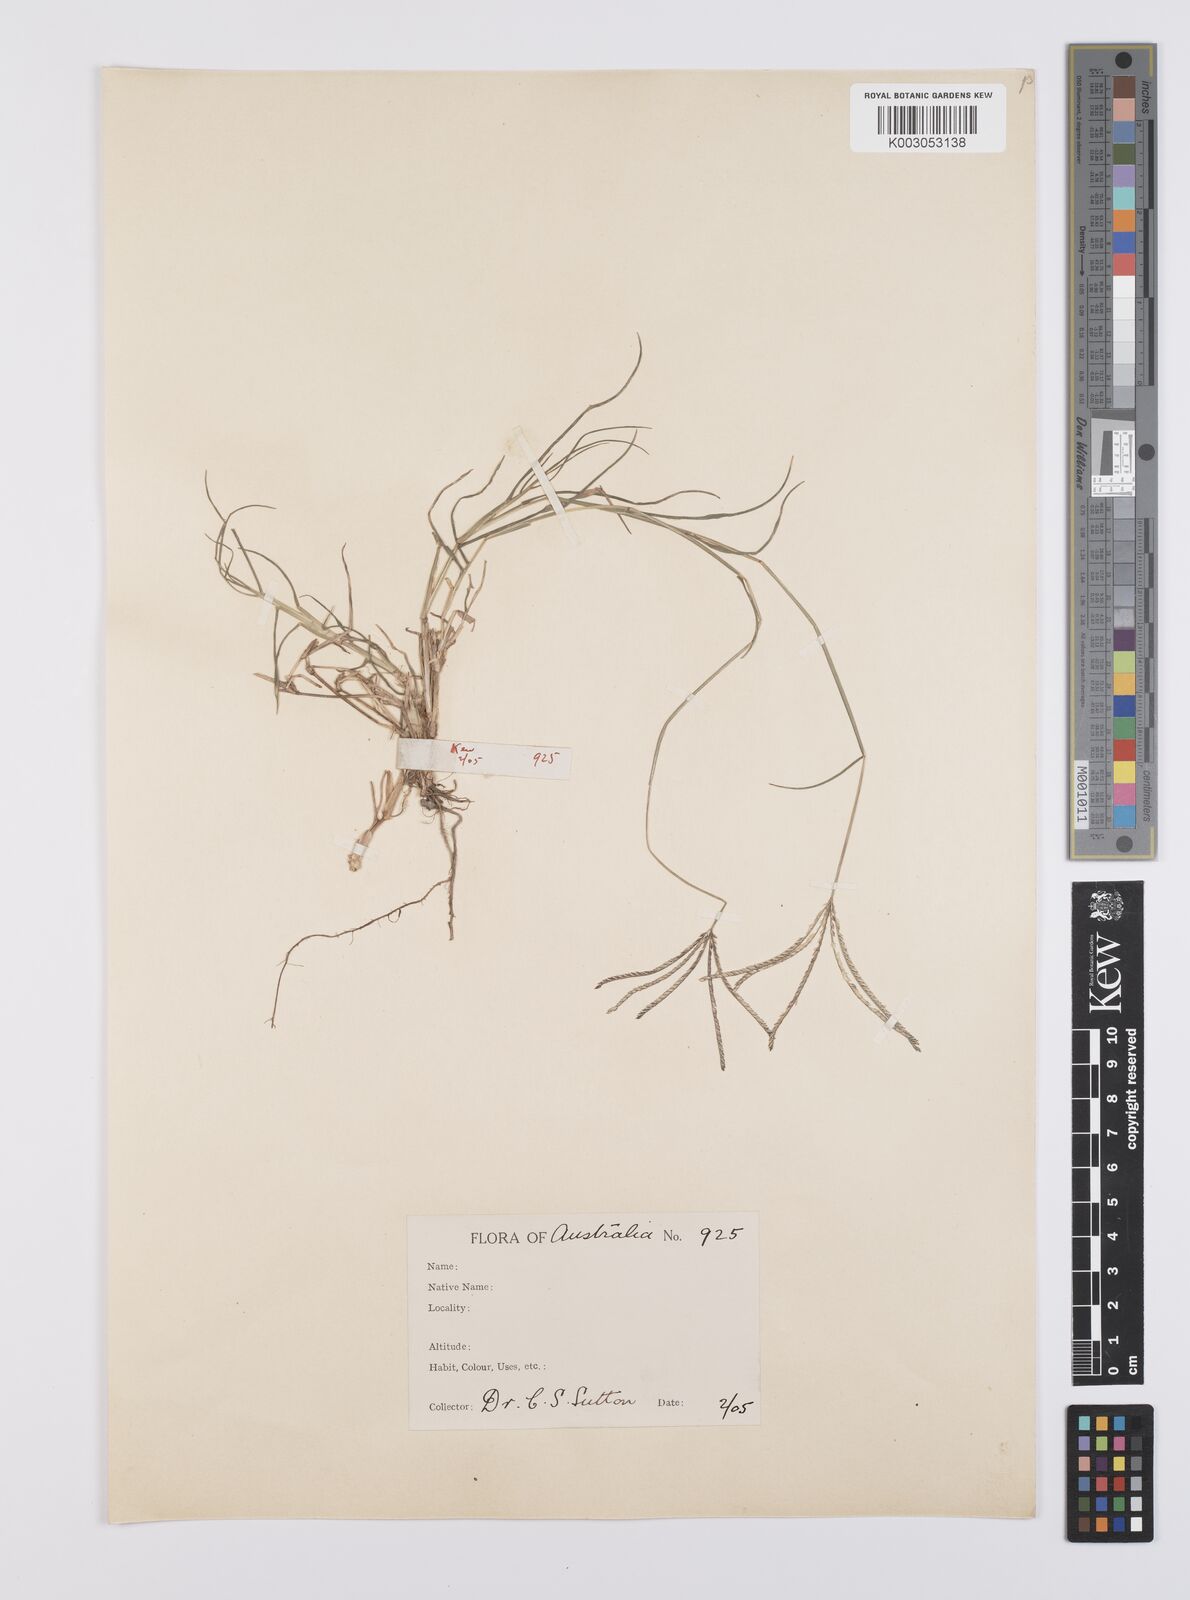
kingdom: Plantae
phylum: Tracheophyta
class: Liliopsida
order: Poales
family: Poaceae
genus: Cynodon
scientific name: Cynodon dactylon
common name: Bermuda grass
